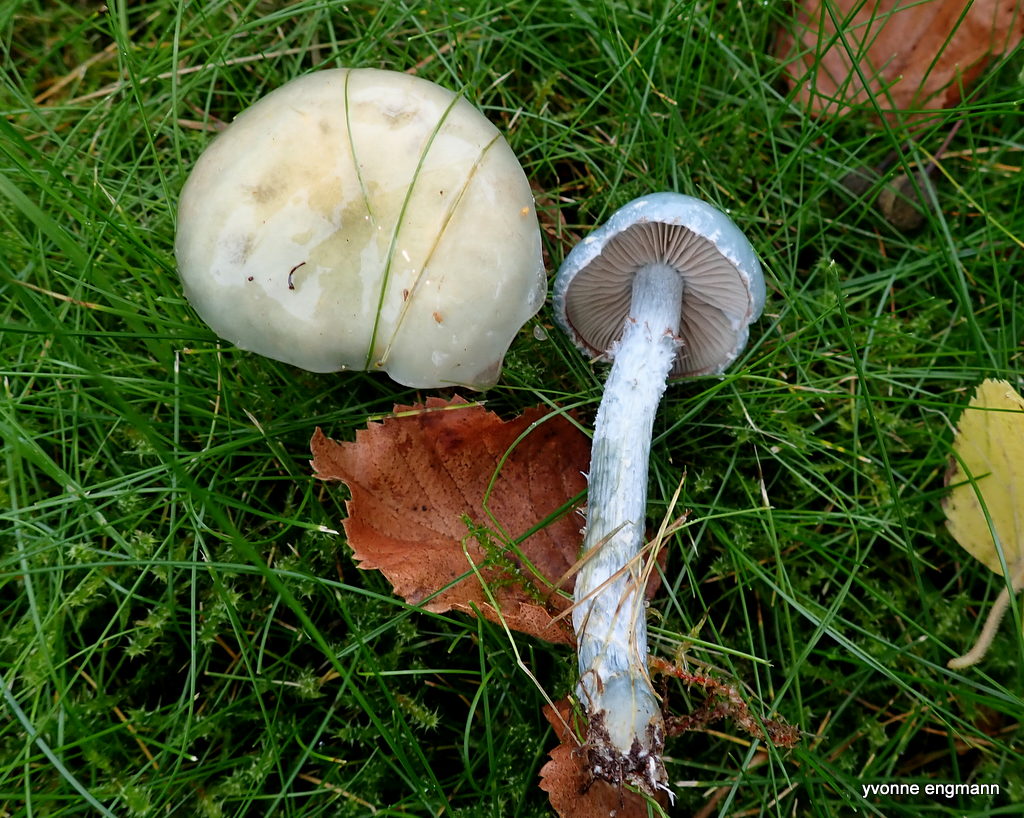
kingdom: Fungi
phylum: Basidiomycota
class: Agaricomycetes
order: Agaricales
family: Strophariaceae
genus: Stropharia
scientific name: Stropharia cyanea
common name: blågrøn bredblad
